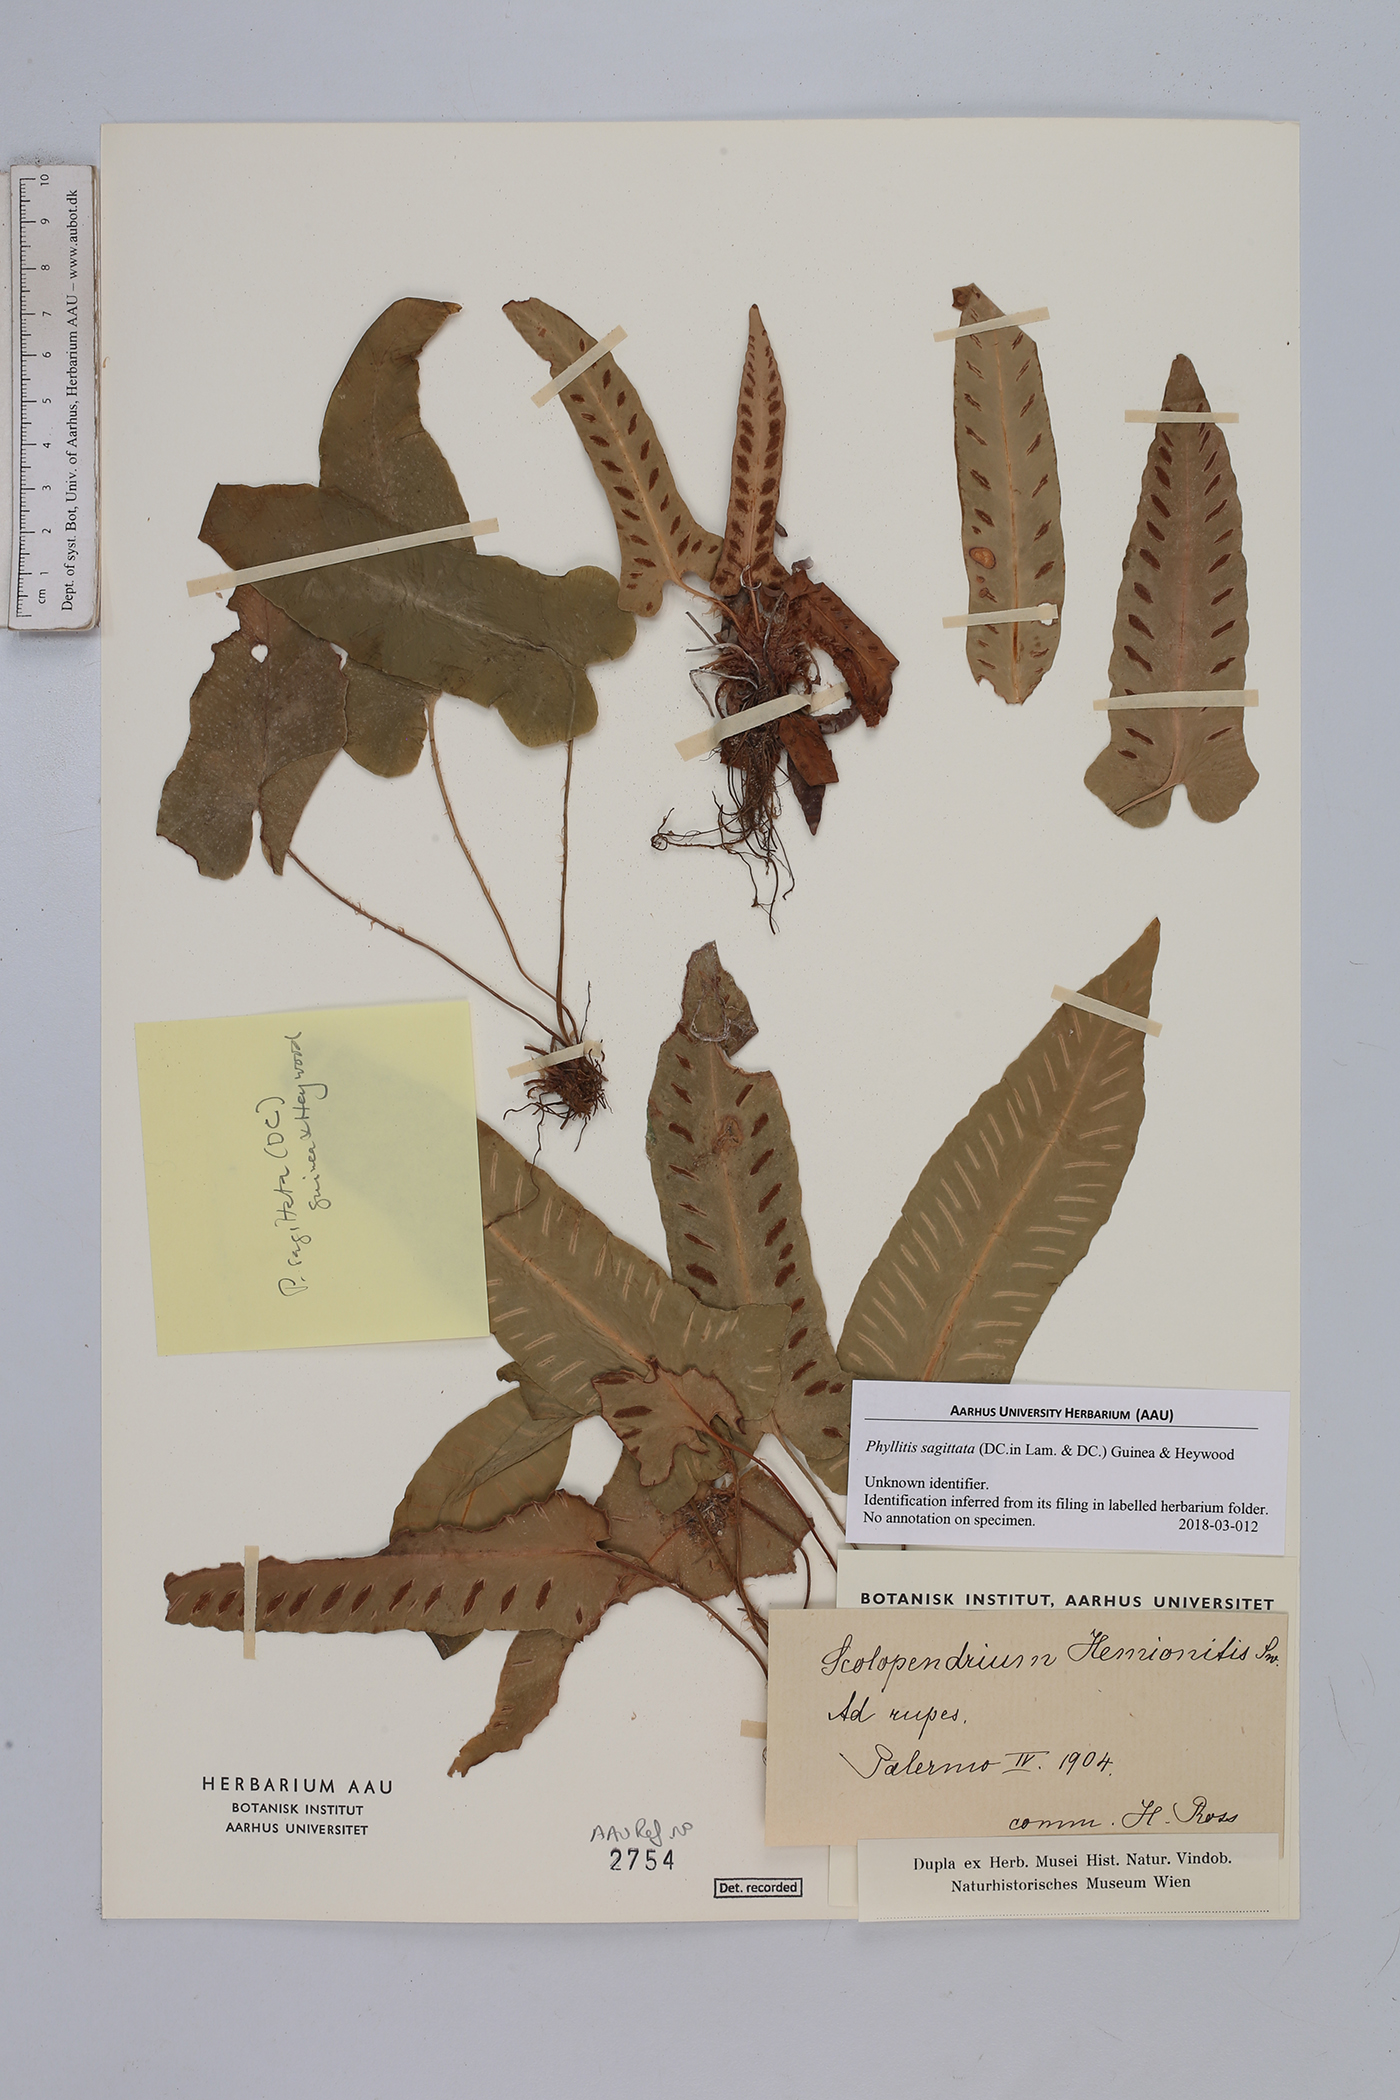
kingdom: Plantae
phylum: Tracheophyta
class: Polypodiopsida
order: Polypodiales
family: Aspleniaceae
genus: Asplenium
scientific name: Asplenium sagittatum
